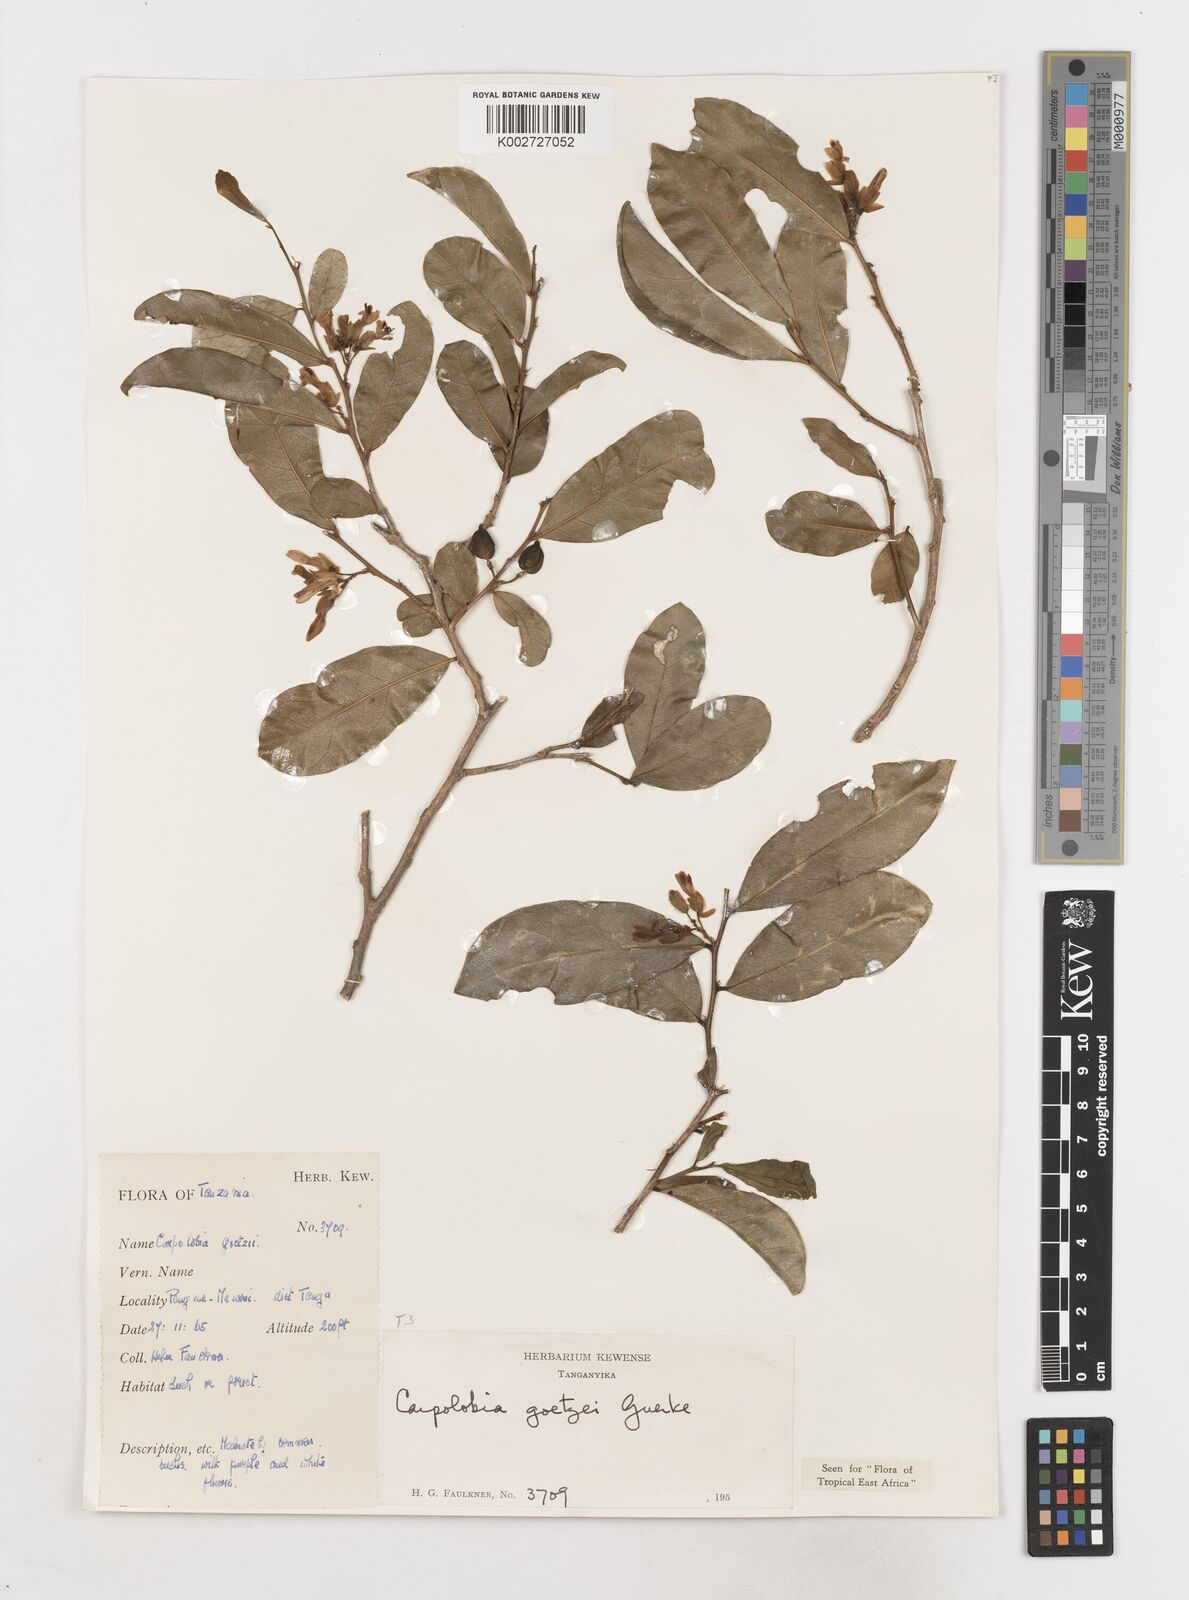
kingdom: Plantae
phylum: Tracheophyta
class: Magnoliopsida
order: Fabales
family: Polygalaceae
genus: Carpolobia
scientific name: Carpolobia goetzei
